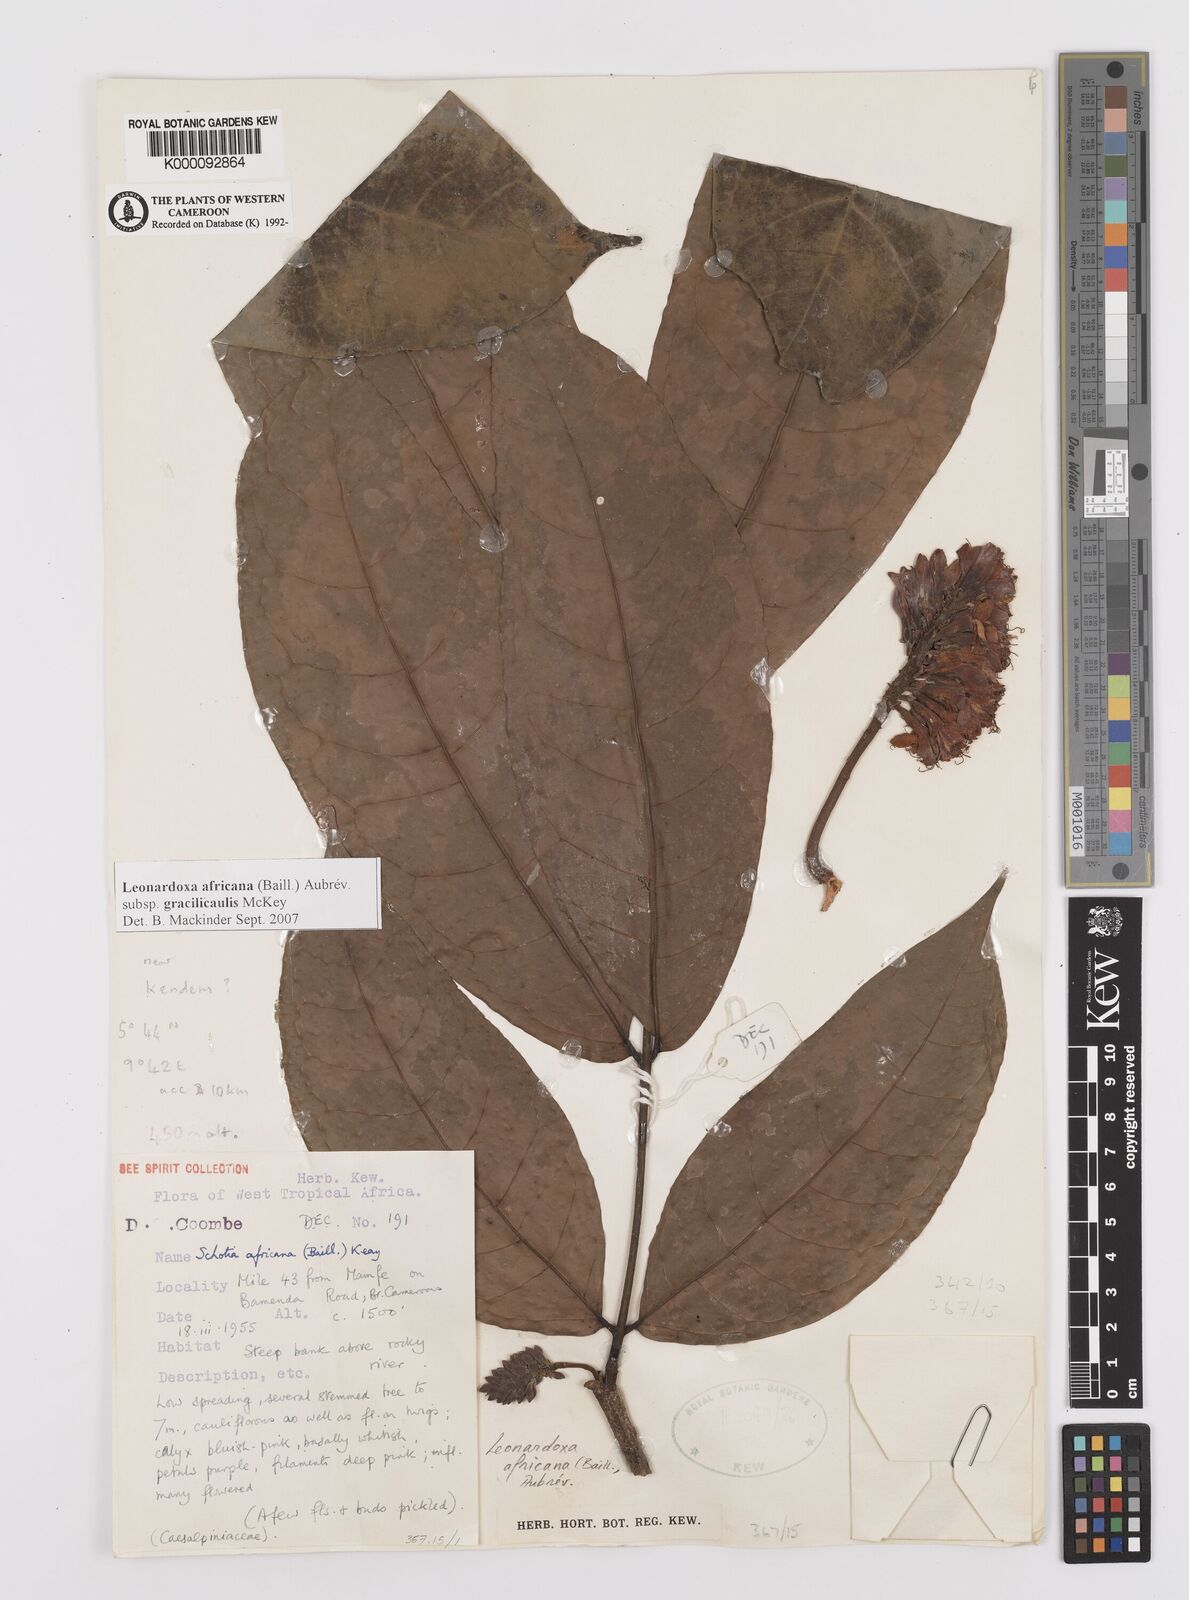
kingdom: Plantae
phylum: Tracheophyta
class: Magnoliopsida
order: Fabales
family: Fabaceae
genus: Leonardoxa
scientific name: Leonardoxa
